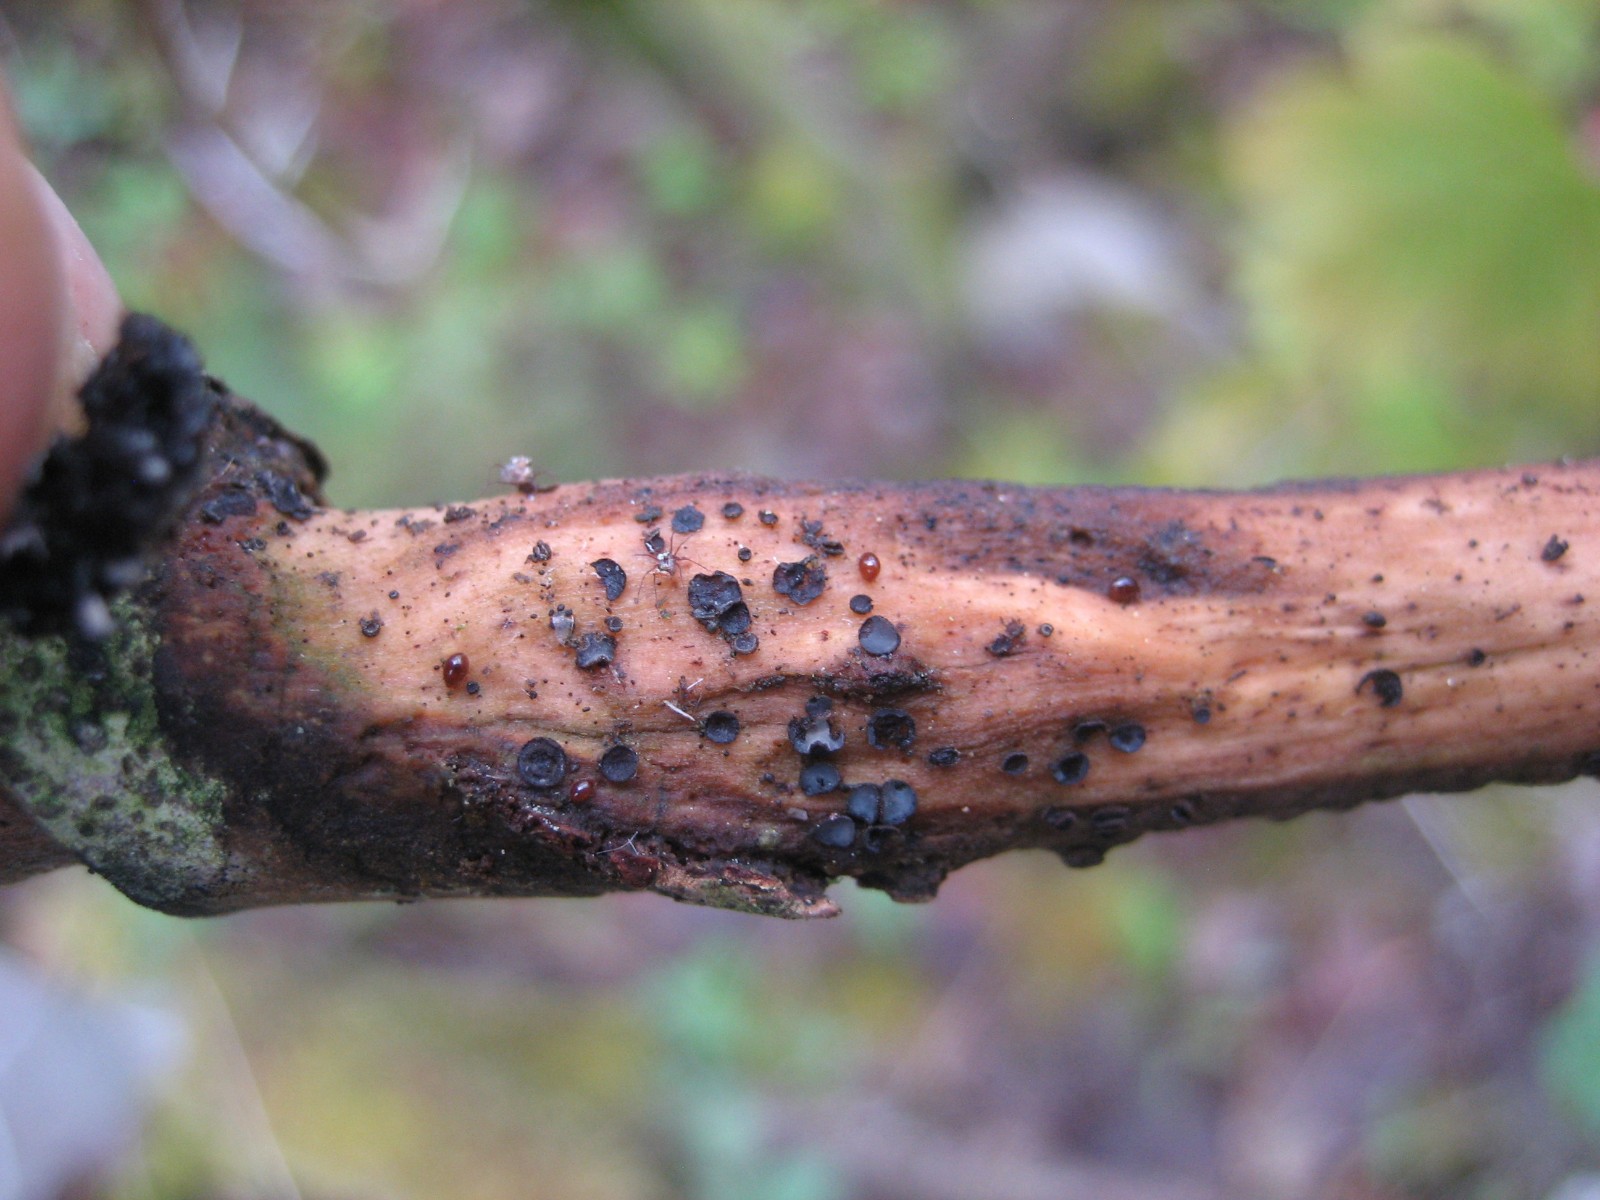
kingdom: Fungi
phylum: Ascomycota
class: Leotiomycetes
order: Helotiales
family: Mollisiaceae
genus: Mollisia
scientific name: Mollisia
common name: gråskive
